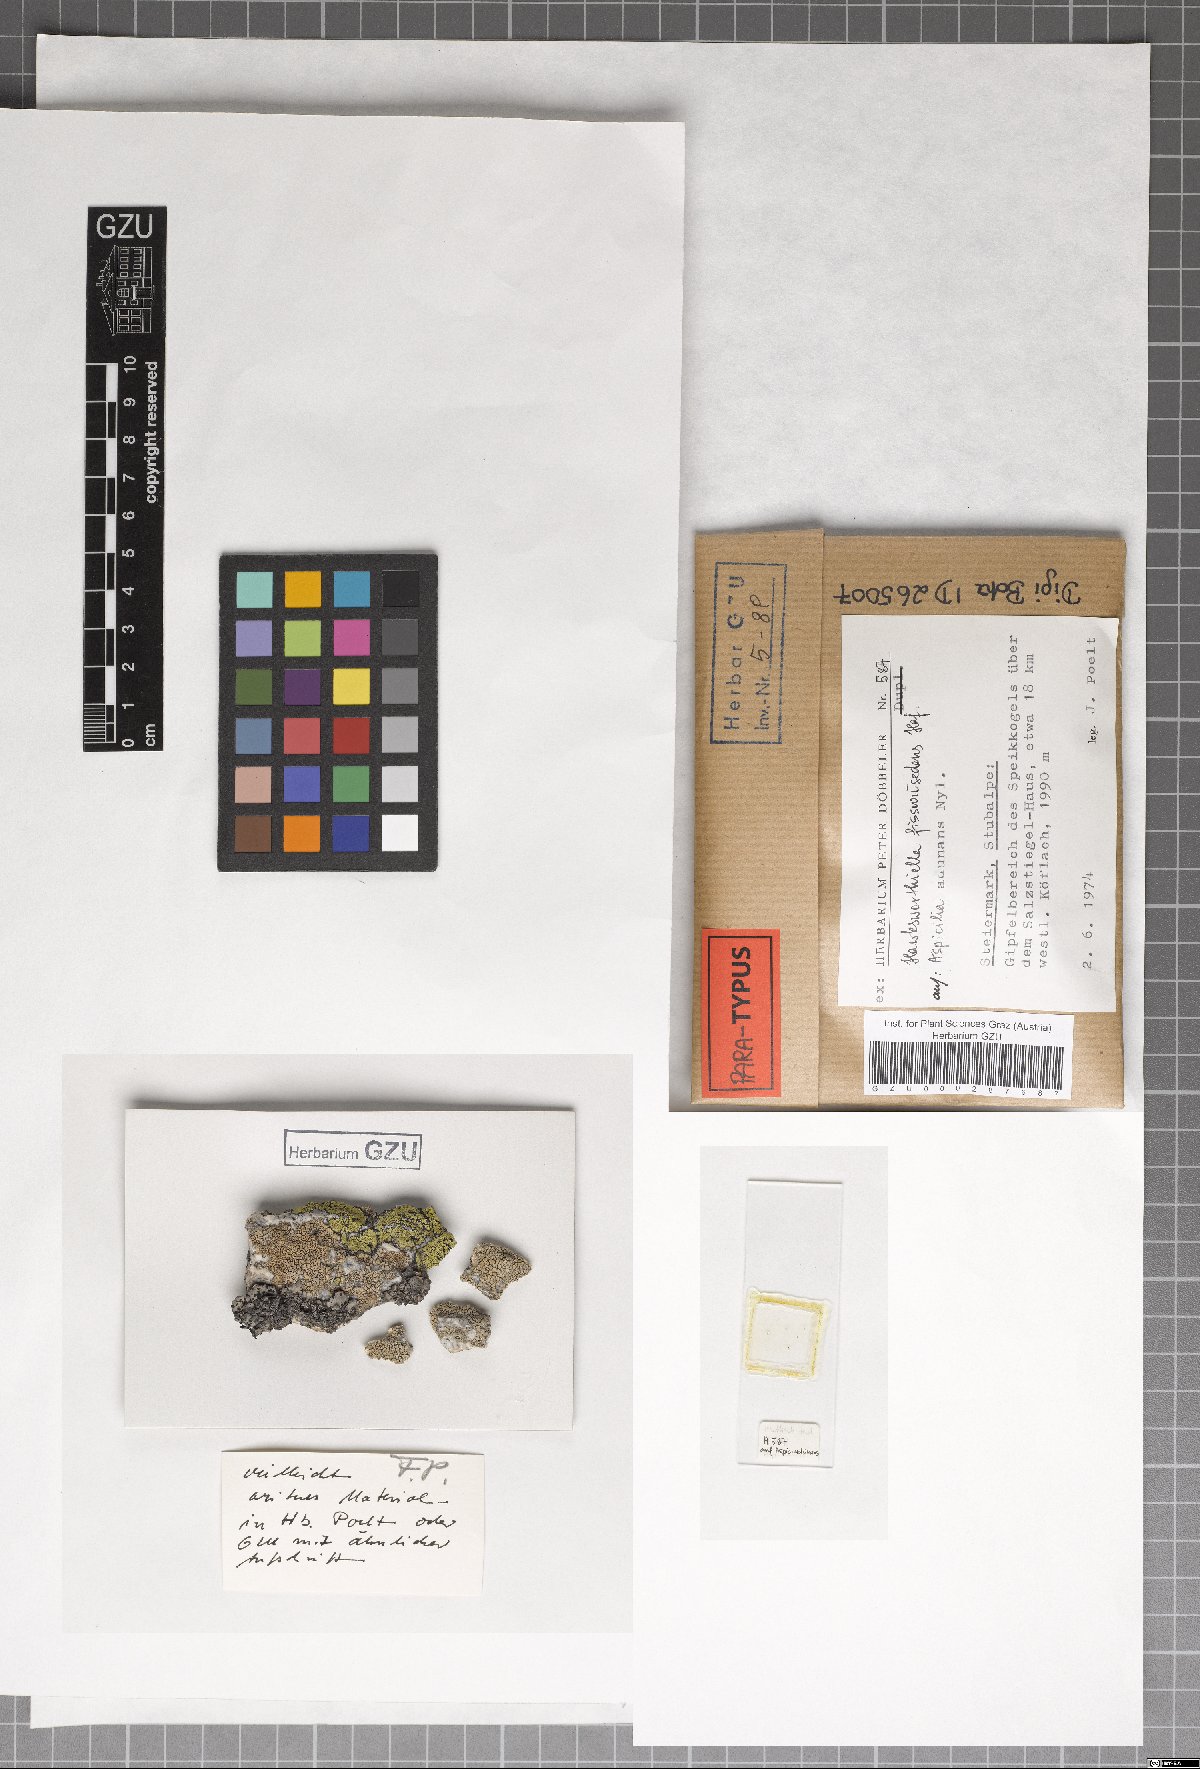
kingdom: Fungi
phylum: Ascomycota
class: Eurotiomycetes
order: Verrucariales
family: Adelococcaceae
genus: Sagediopsis
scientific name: Sagediopsis fissurisedens
